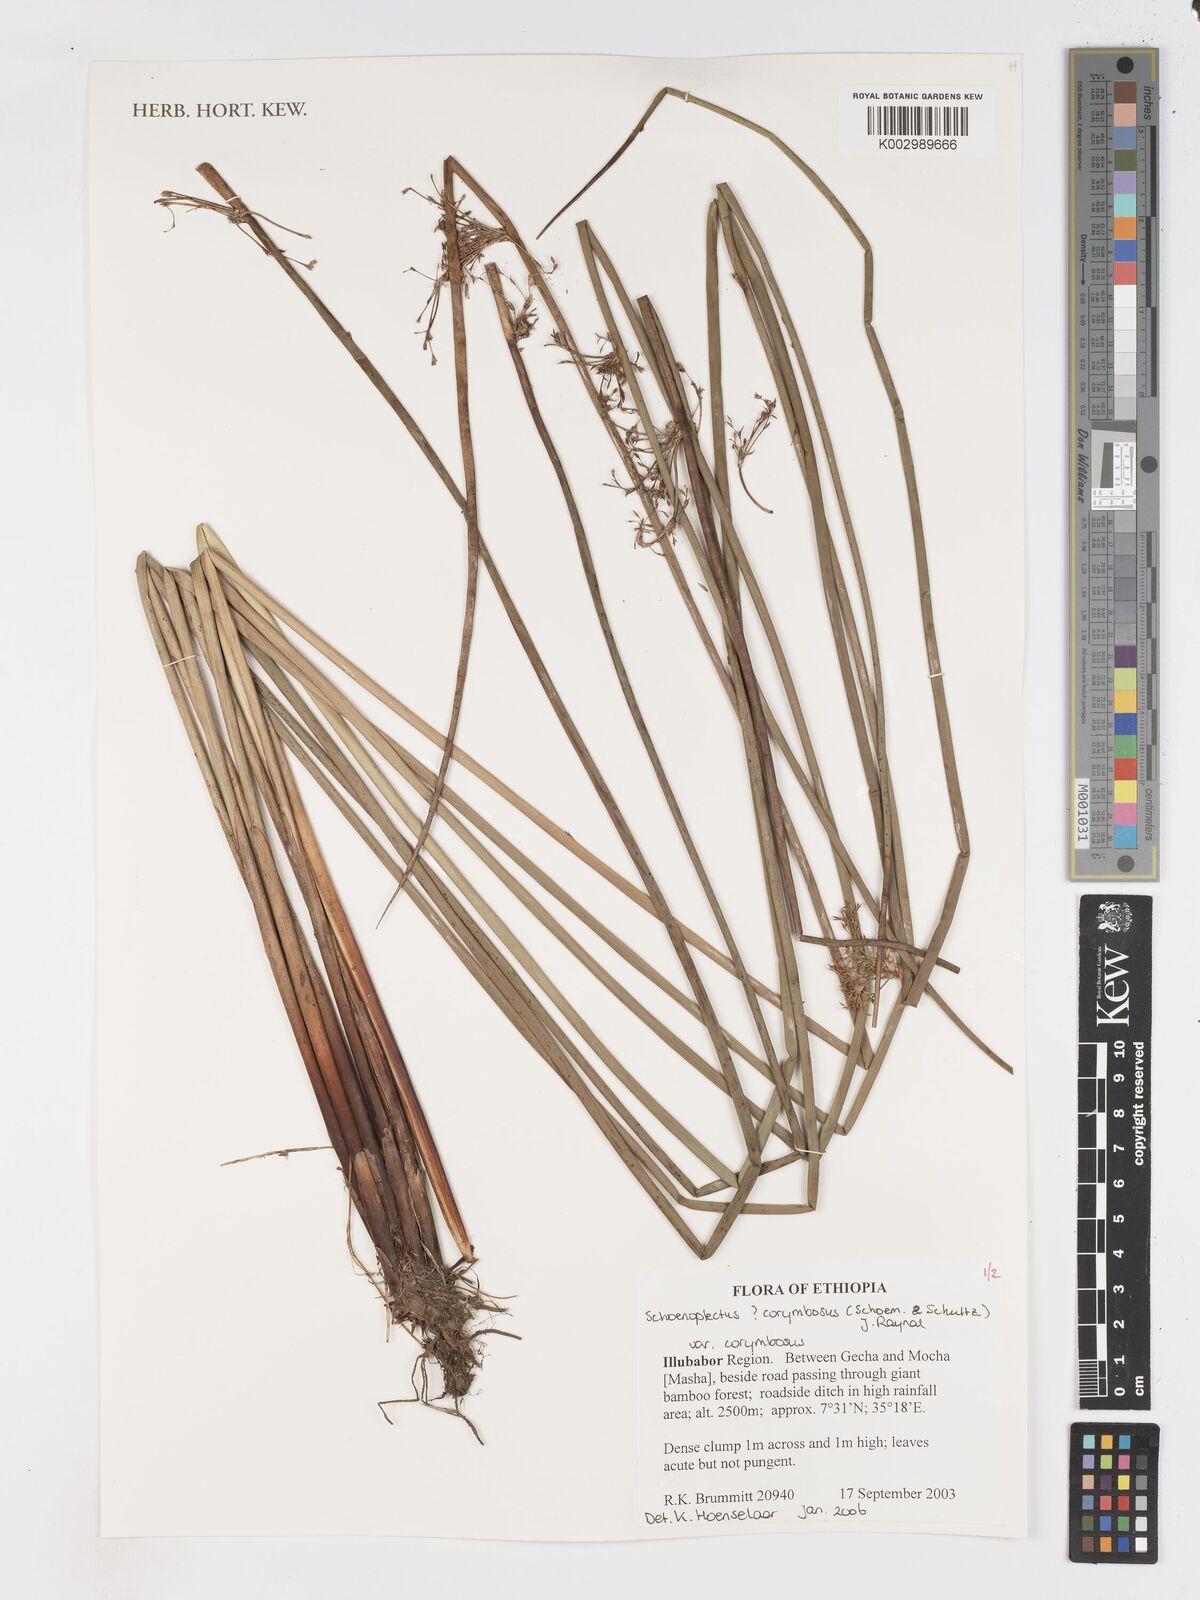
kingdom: Plantae
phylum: Tracheophyta
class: Liliopsida
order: Poales
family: Cyperaceae
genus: Schoenoplectiella
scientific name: Schoenoplectiella corymbosa
